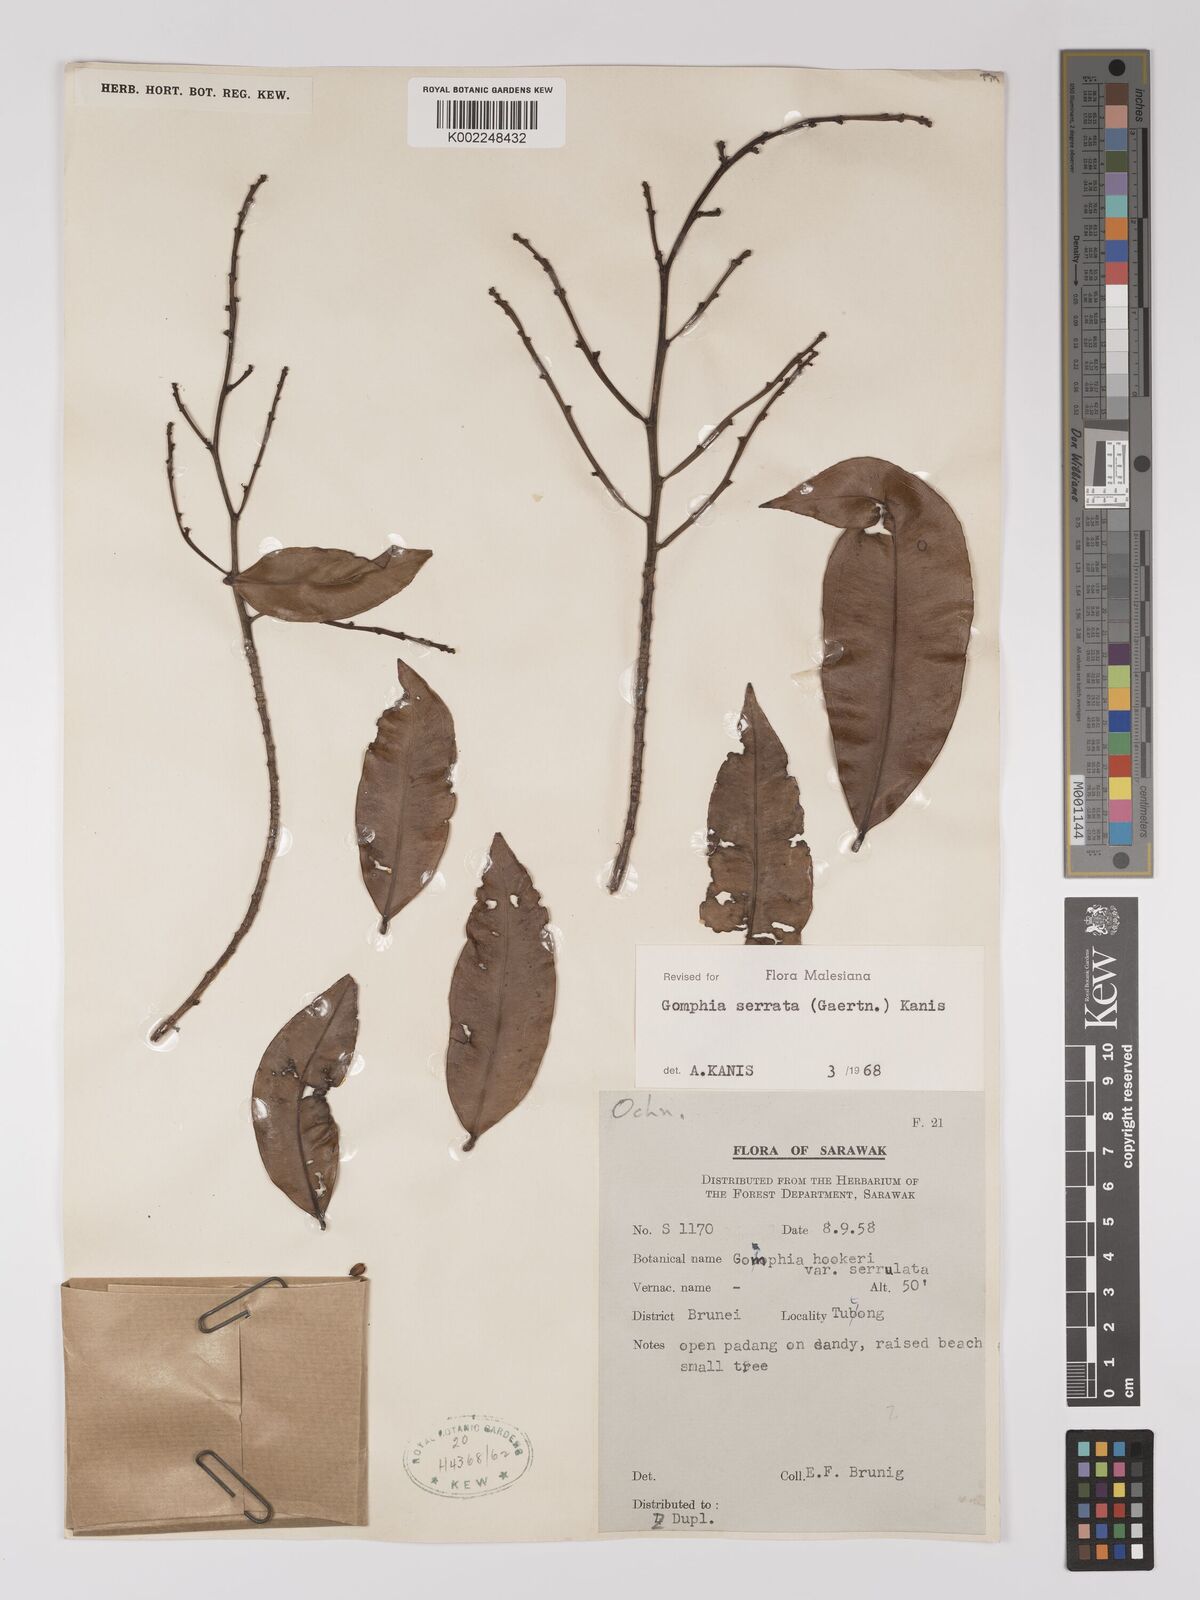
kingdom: Plantae
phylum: Tracheophyta
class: Magnoliopsida
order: Malpighiales
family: Ochnaceae
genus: Gomphia
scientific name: Gomphia serrata
